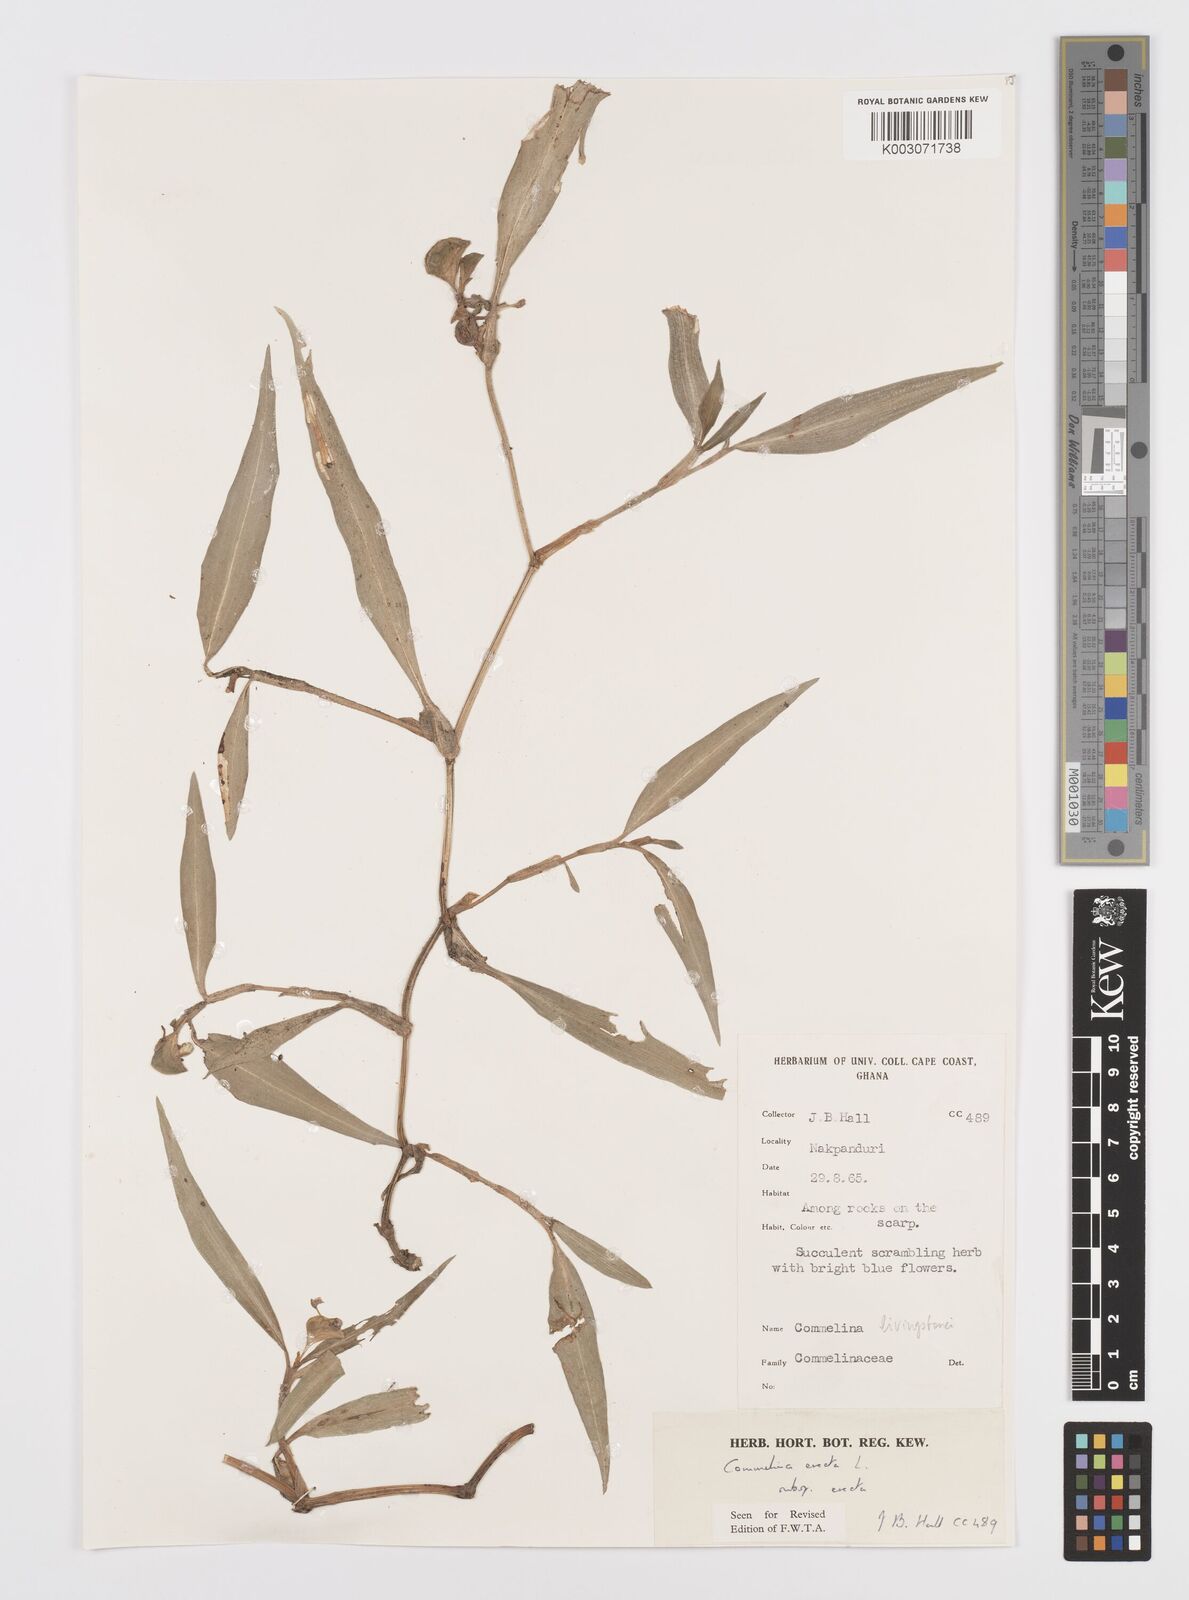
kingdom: Plantae
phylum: Tracheophyta
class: Liliopsida
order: Commelinales
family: Commelinaceae
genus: Commelina
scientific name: Commelina erecta
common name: Blousel blommetjie
